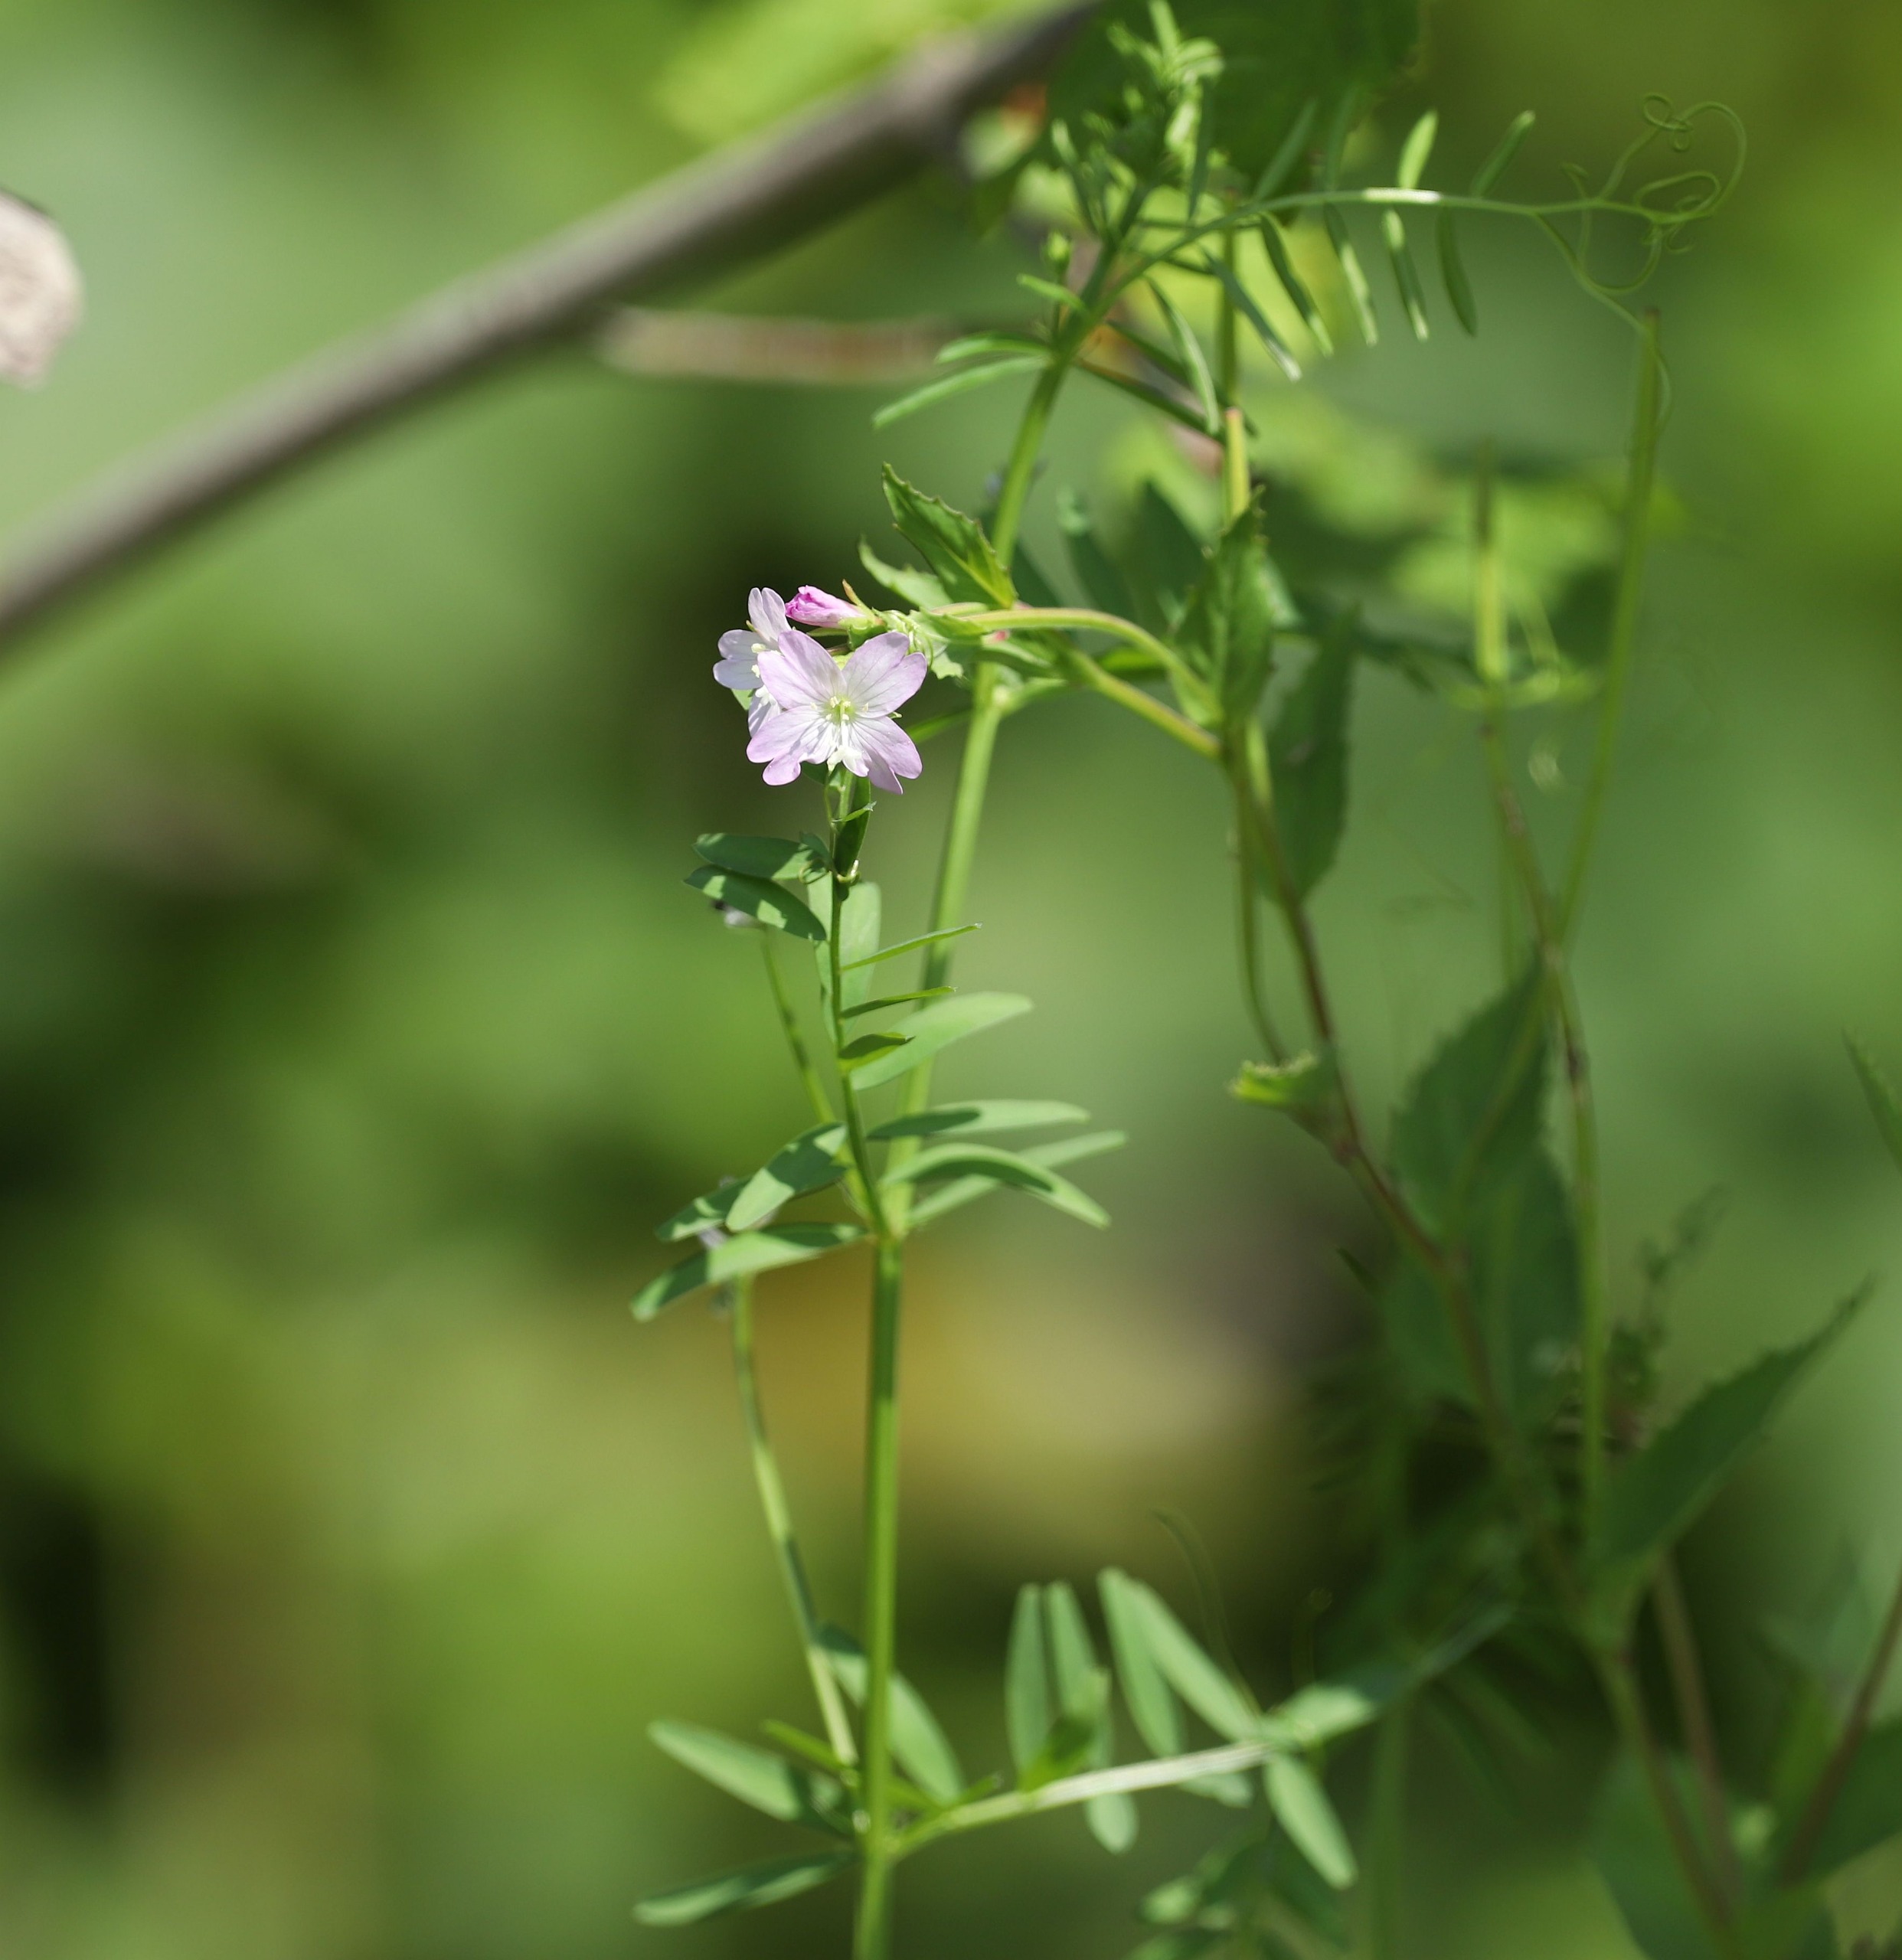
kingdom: Plantae
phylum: Tracheophyta
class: Magnoliopsida
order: Myrtales
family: Onagraceae
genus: Epilobium
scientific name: Epilobium montanum
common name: Glat dueurt
